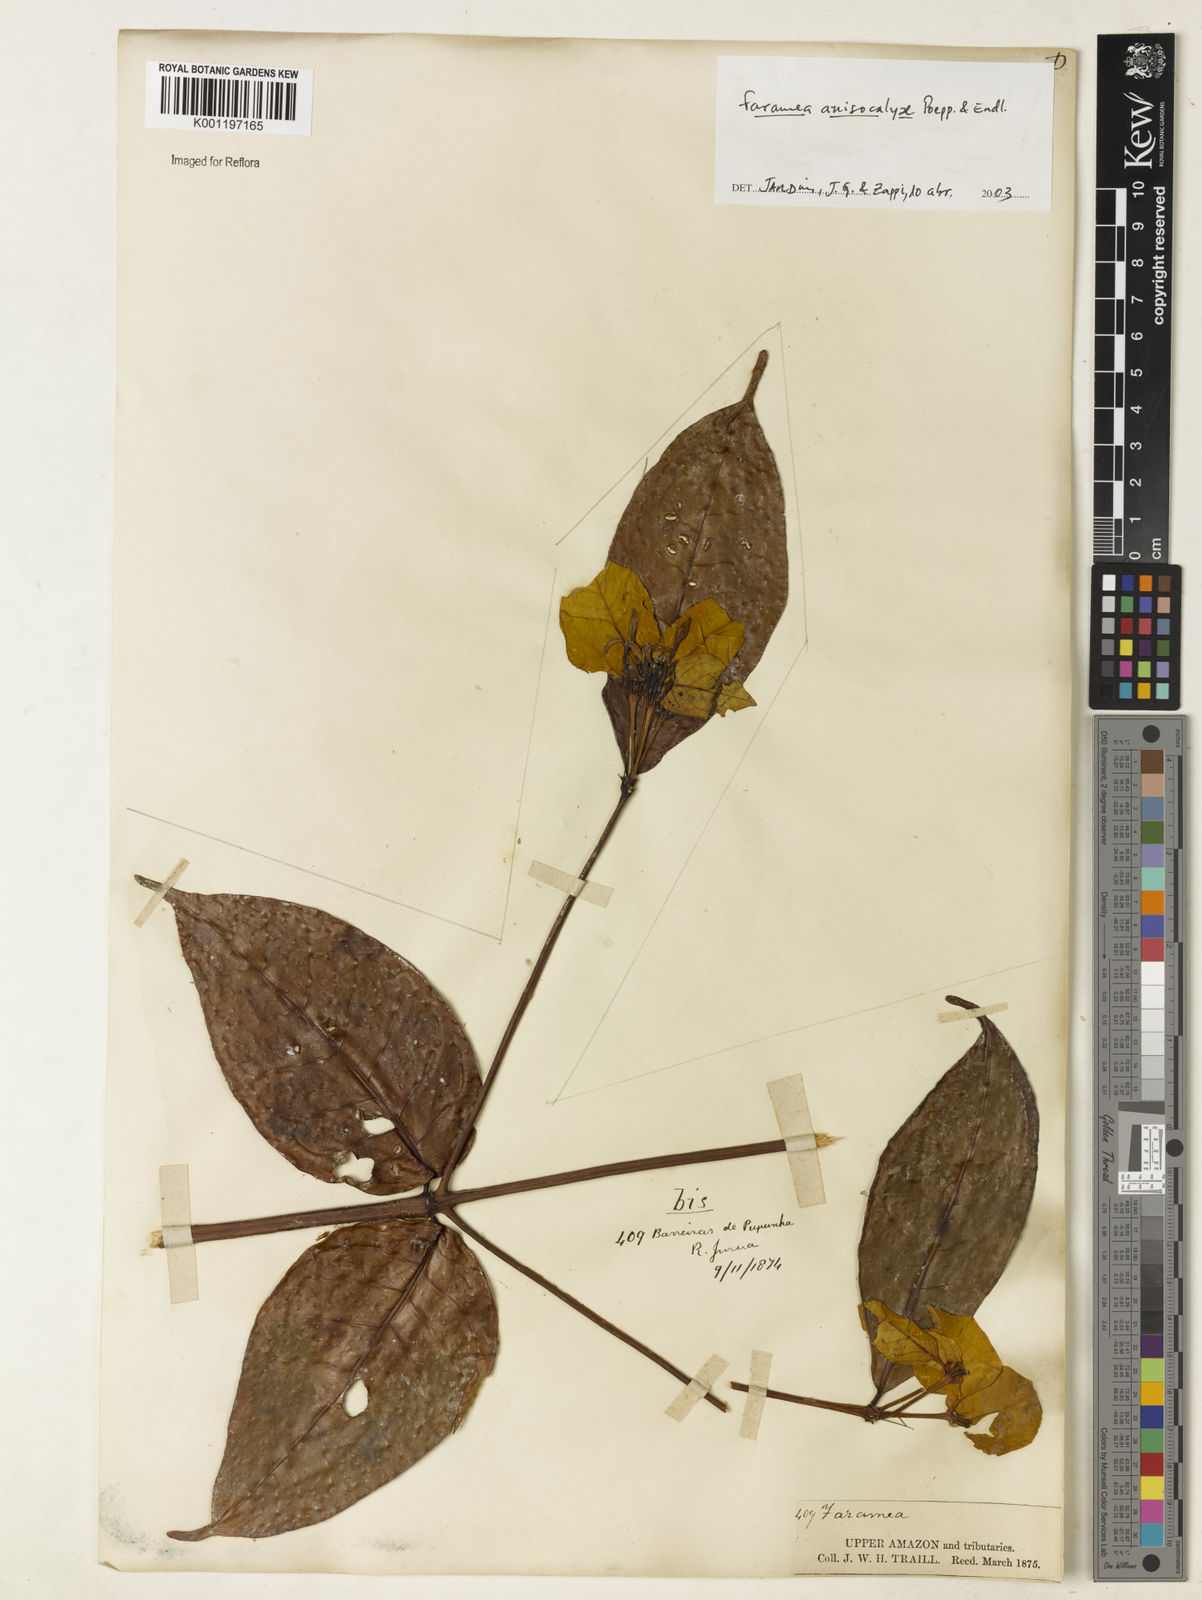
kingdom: Plantae
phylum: Tracheophyta
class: Magnoliopsida
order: Gentianales
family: Rubiaceae
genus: Faramea
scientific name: Faramea anisocalyx
